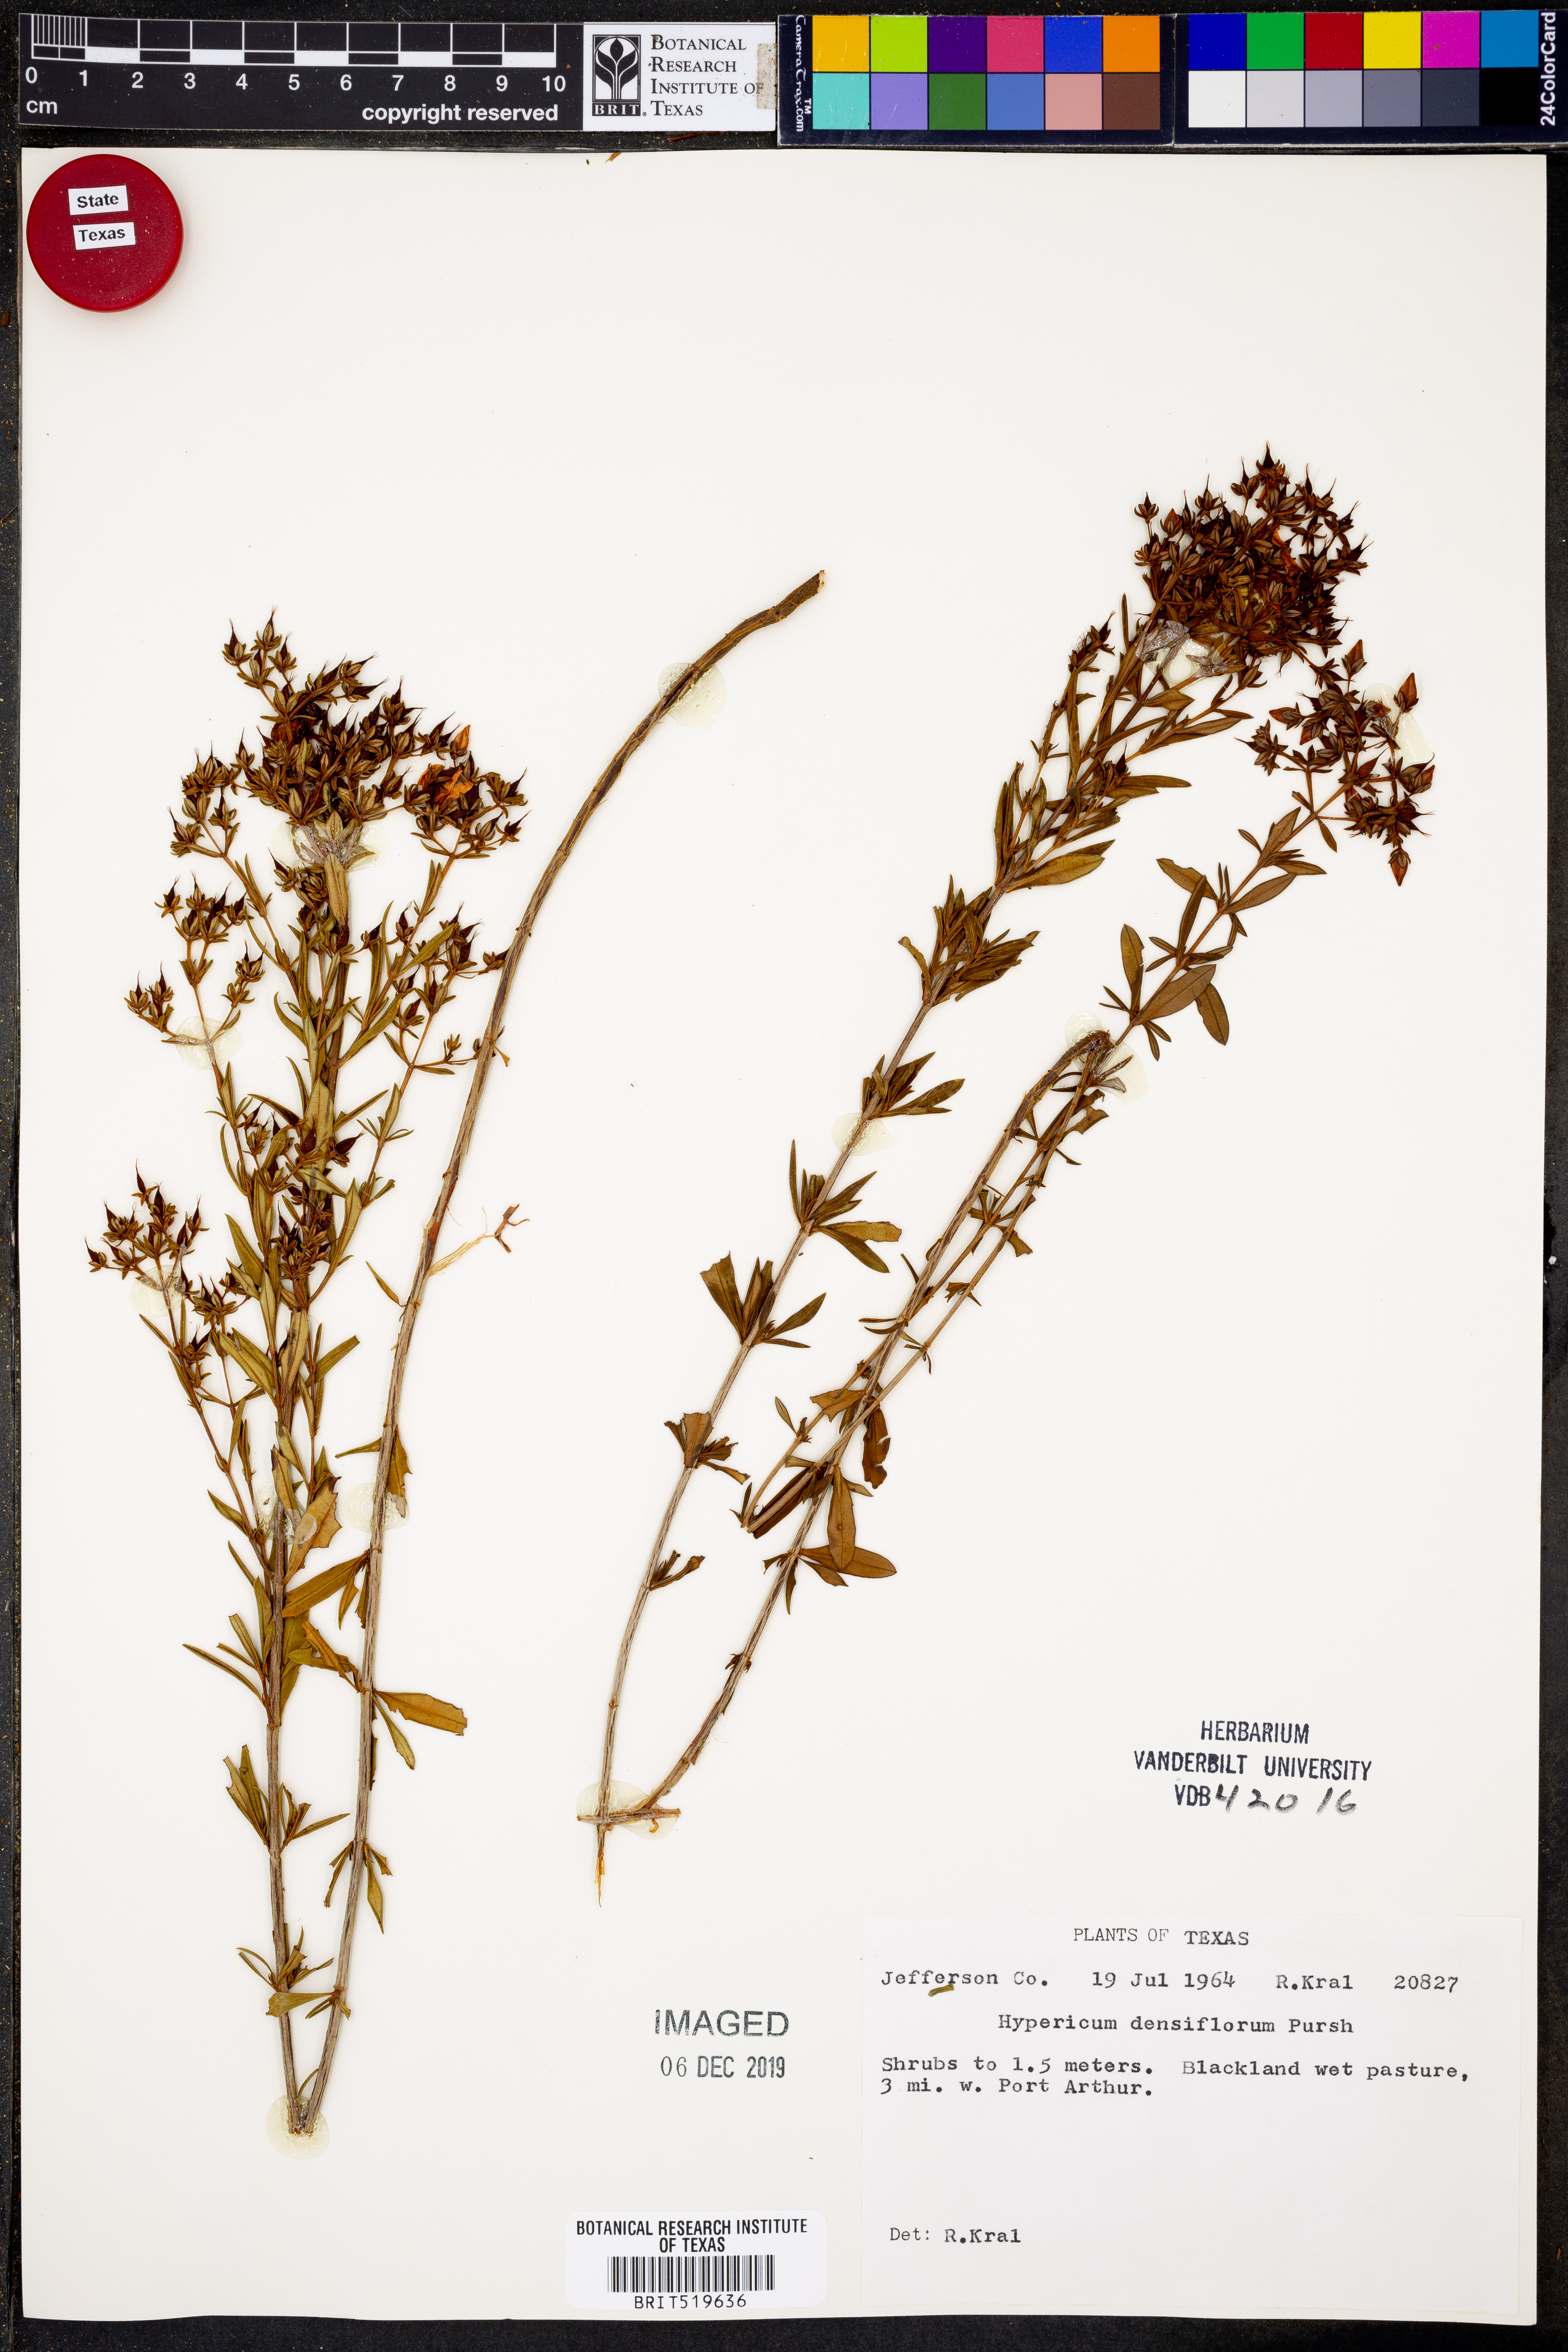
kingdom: Plantae
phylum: Tracheophyta
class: Magnoliopsida
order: Malpighiales
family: Hypericaceae
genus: Hypericum
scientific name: Hypericum densiflorum
